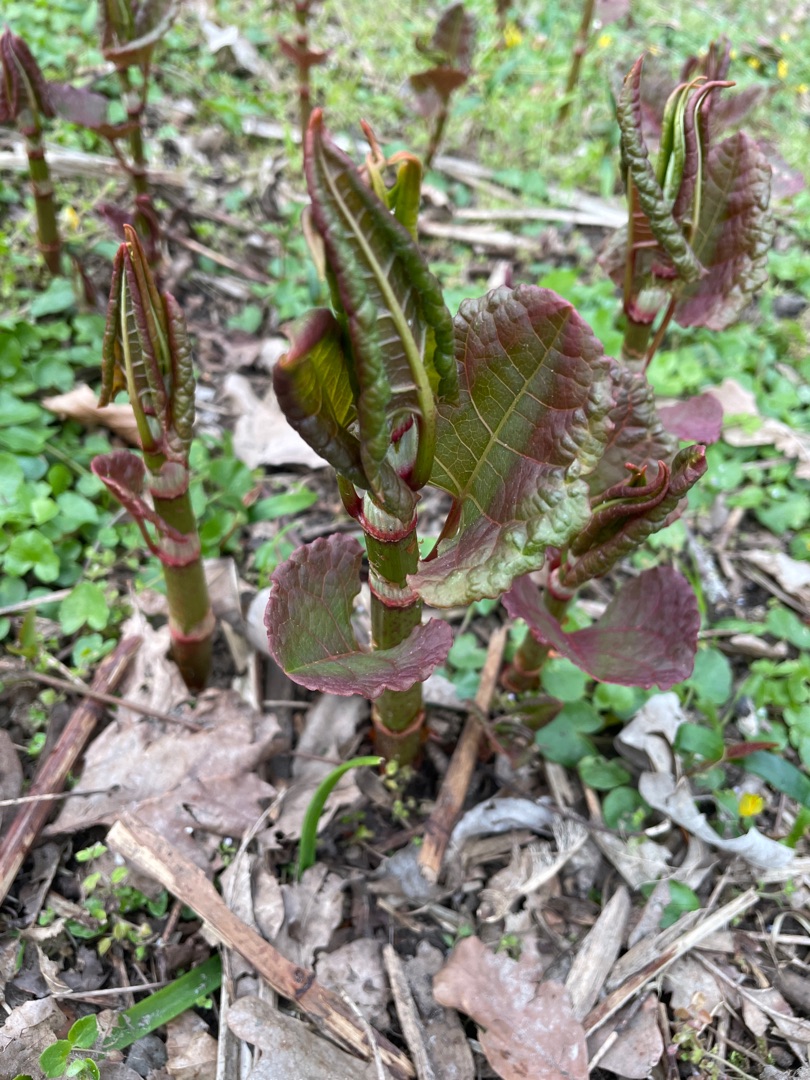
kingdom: Plantae
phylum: Tracheophyta
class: Magnoliopsida
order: Caryophyllales
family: Polygonaceae
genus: Reynoutria
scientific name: Reynoutria japonica
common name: Japan-pileurt
